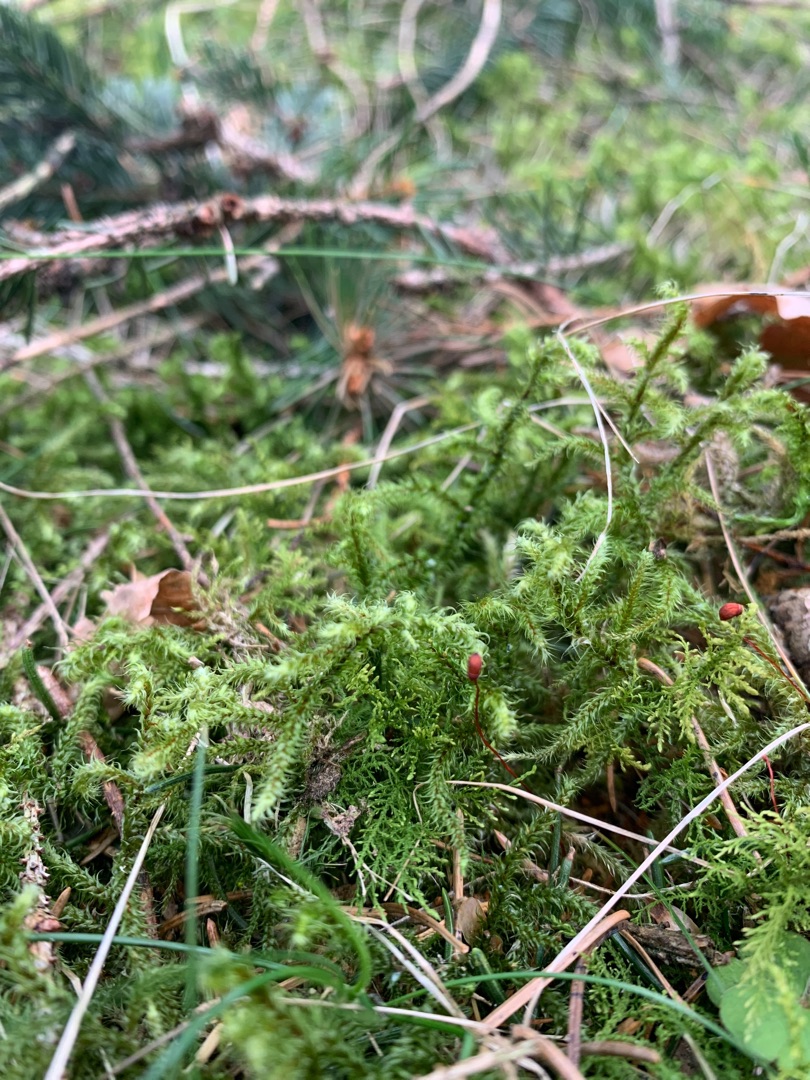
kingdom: Plantae
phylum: Bryophyta
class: Bryopsida
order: Hypnales
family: Hylocomiaceae
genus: Rhytidiadelphus
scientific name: Rhytidiadelphus loreus
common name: Ulvefod-kransemos
